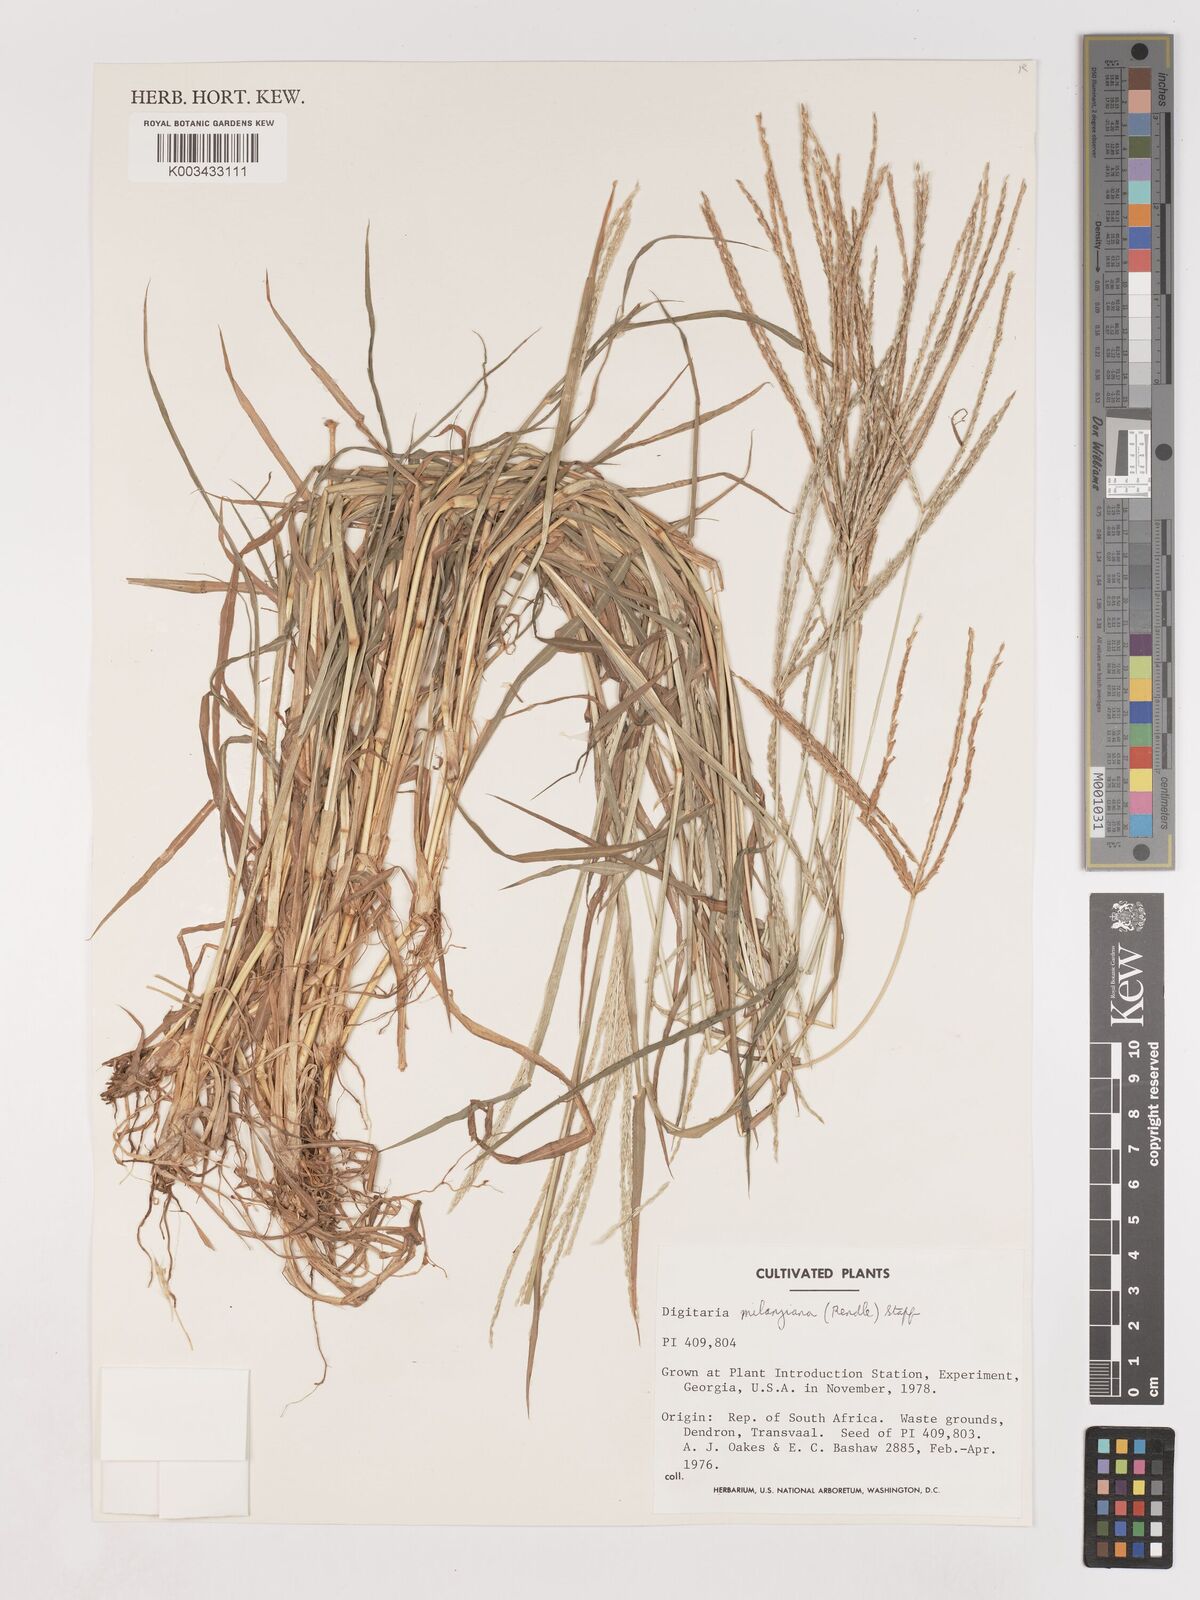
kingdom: Plantae
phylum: Tracheophyta
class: Liliopsida
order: Poales
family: Poaceae
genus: Digitaria
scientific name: Digitaria milanjiana
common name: Madagascar crabgrass
